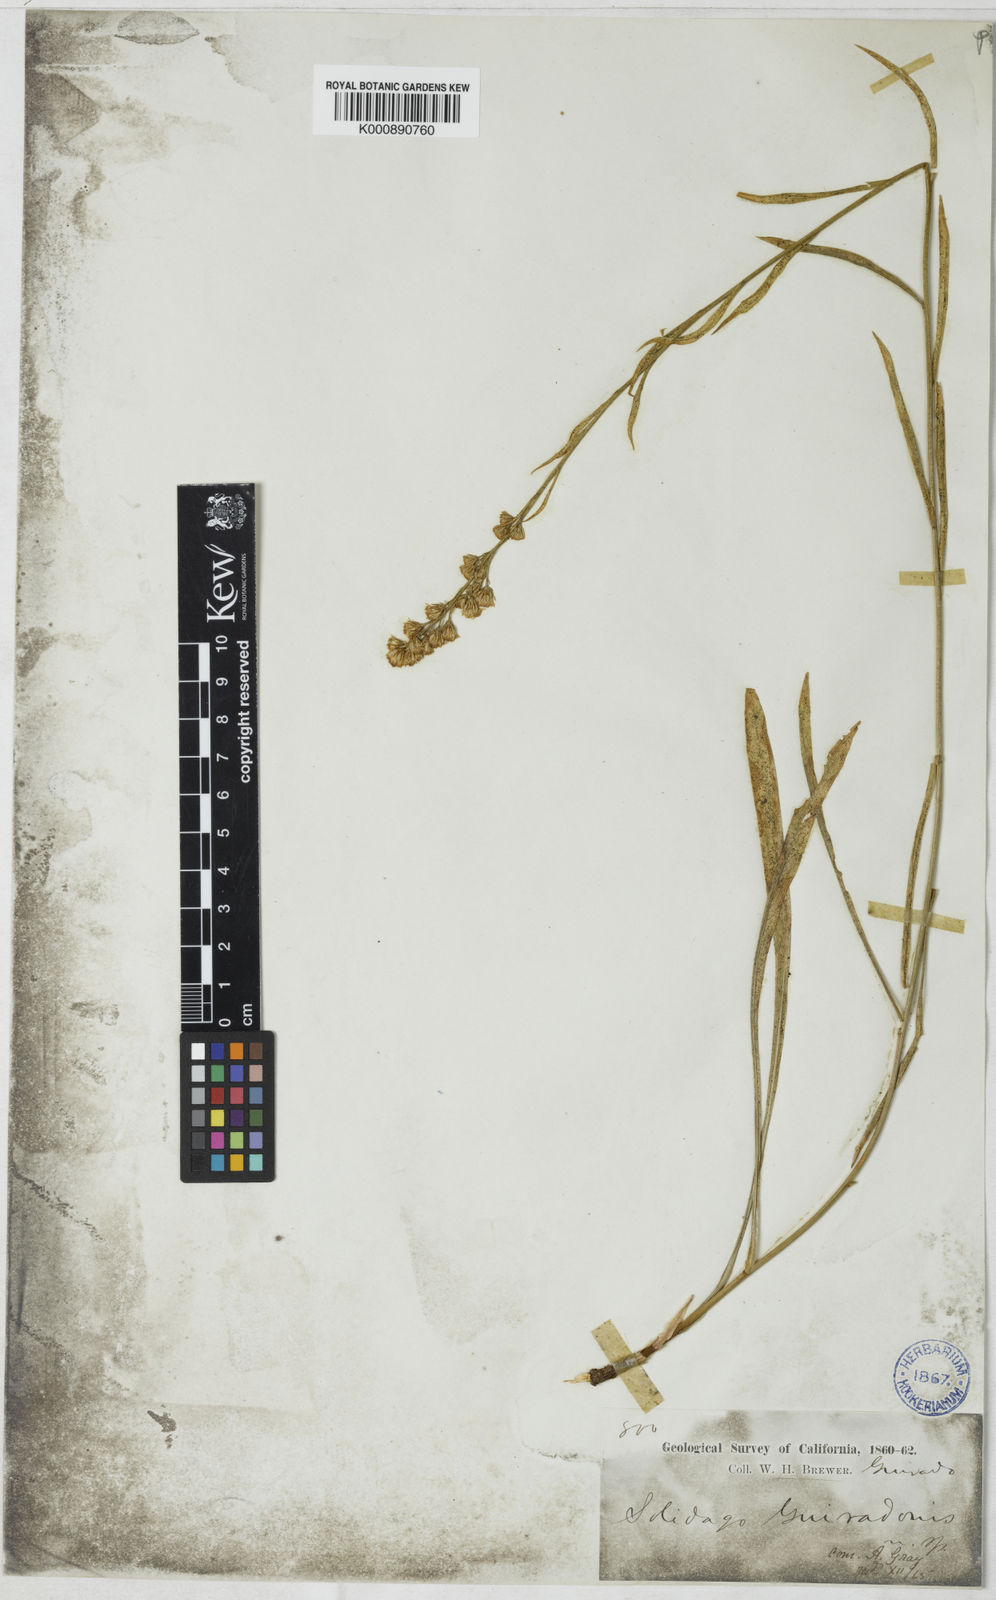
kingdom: Plantae
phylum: Tracheophyta
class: Magnoliopsida
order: Asterales
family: Asteraceae
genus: Solidago
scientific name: Solidago guiradonis
